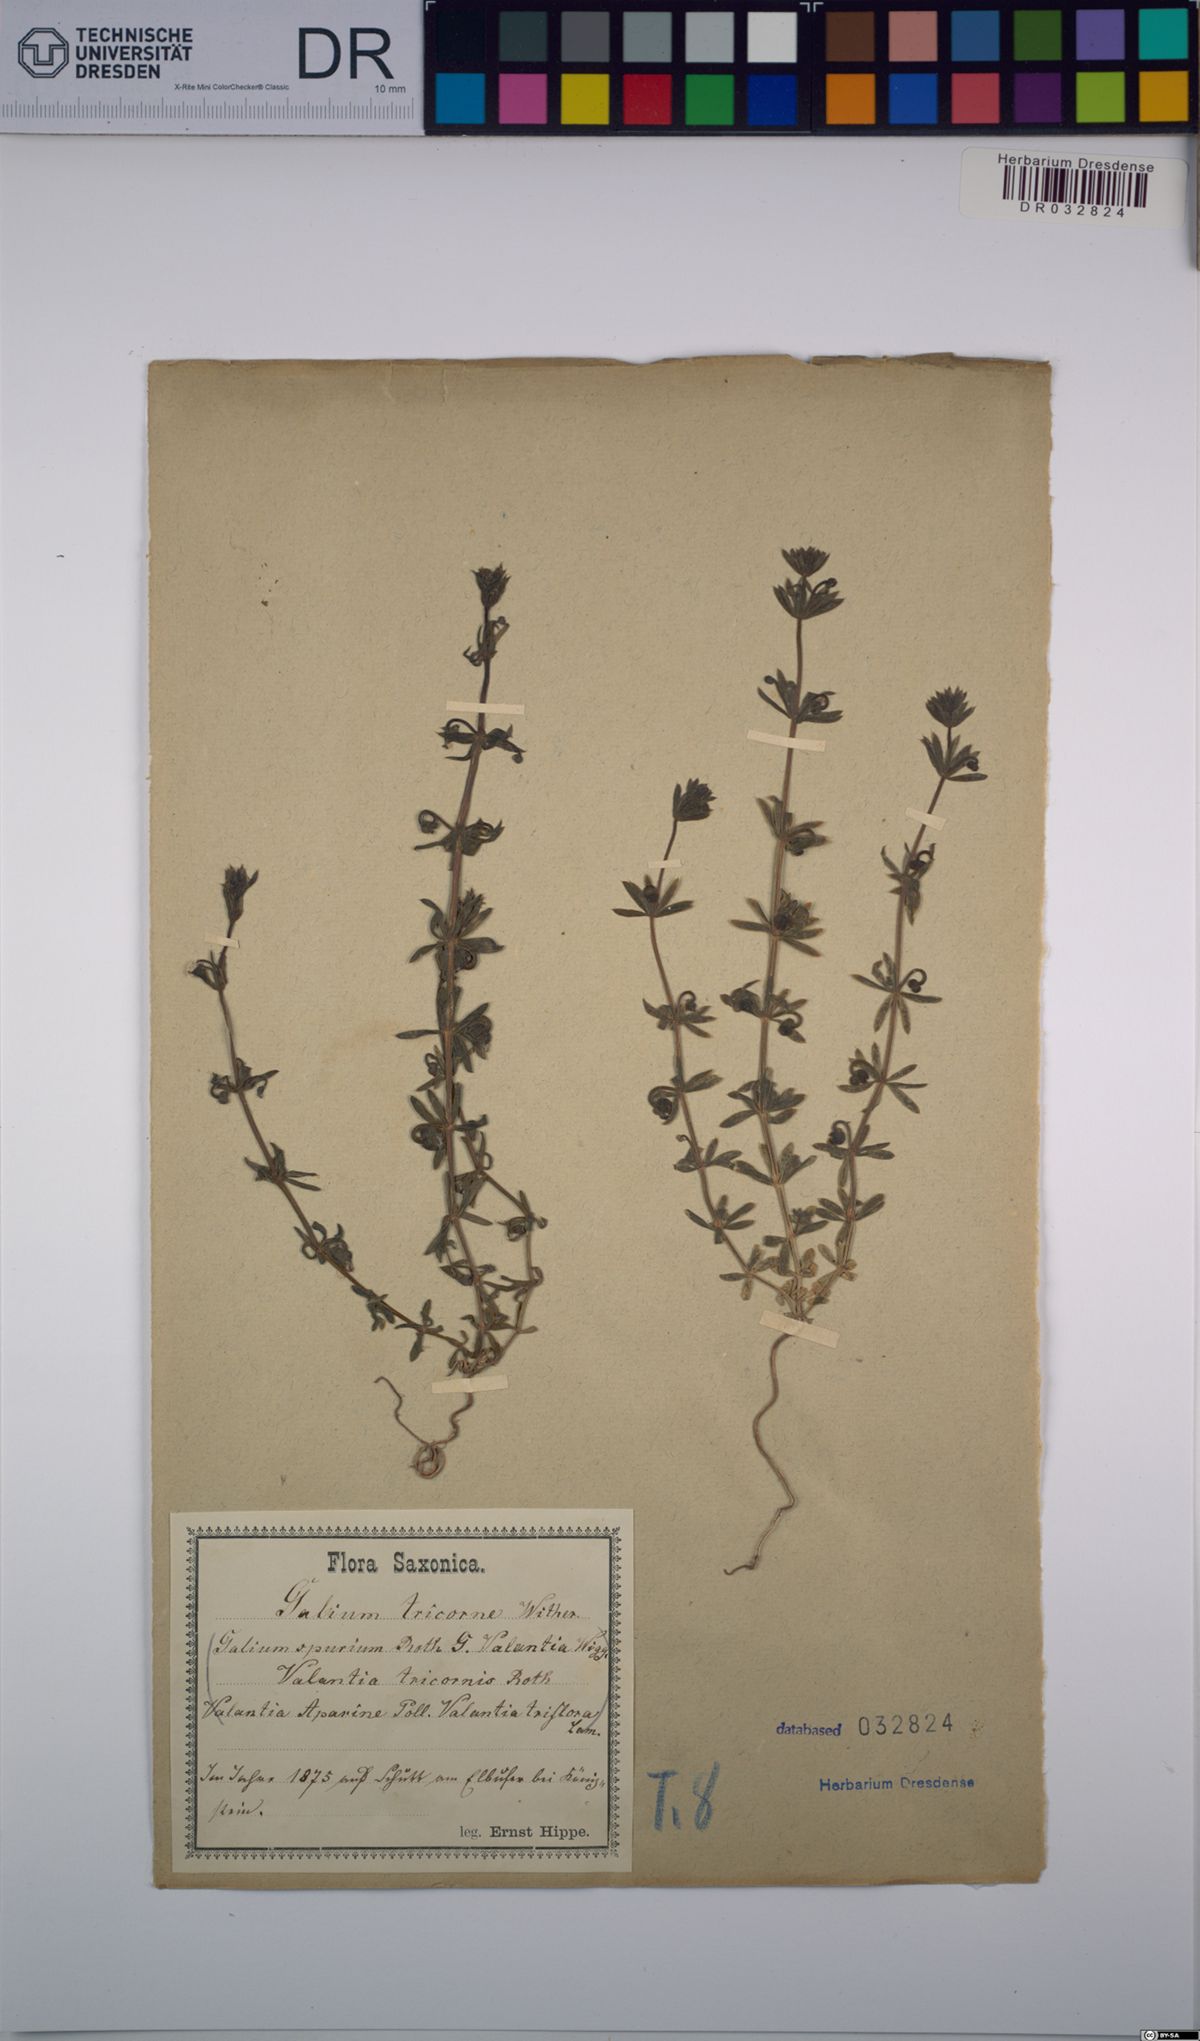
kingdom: Plantae
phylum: Tracheophyta
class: Magnoliopsida
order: Gentianales
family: Rubiaceae
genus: Galium
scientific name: Galium tricornutum
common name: Corn cleavers
